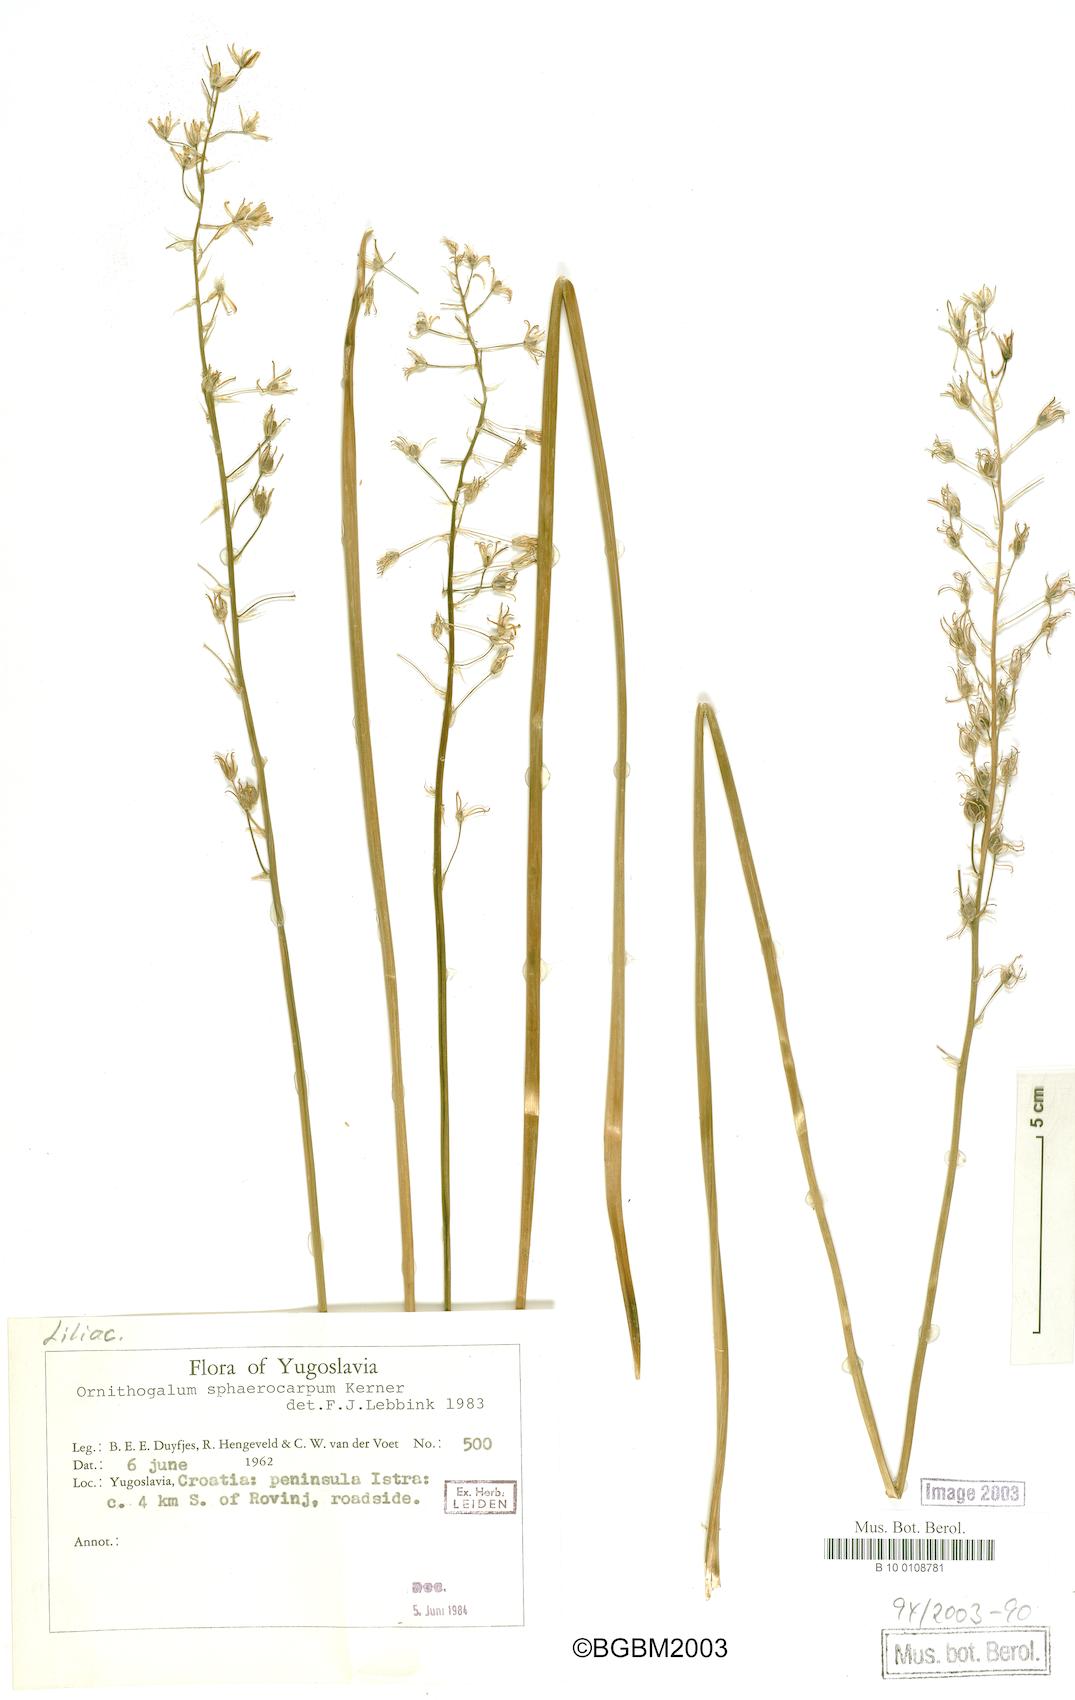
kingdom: Plantae
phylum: Tracheophyta
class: Liliopsida
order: Asparagales
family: Asparagaceae
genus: Ornithogalum
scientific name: Ornithogalum sphaerocarpum
